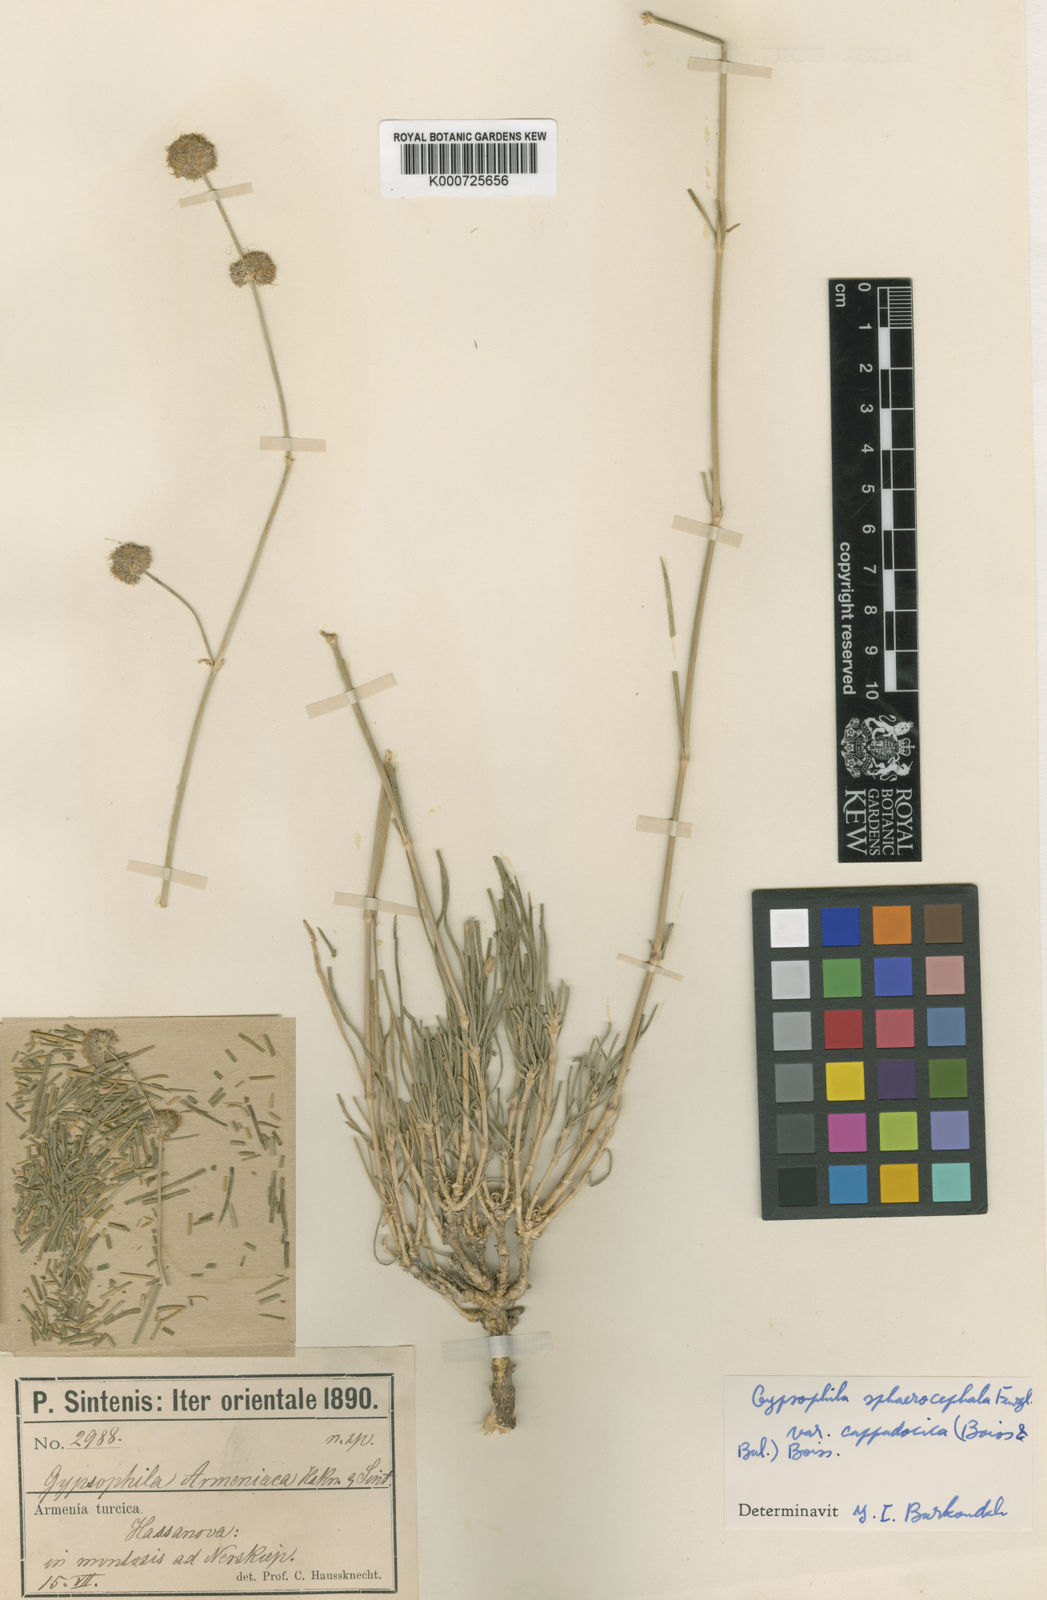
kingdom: Plantae
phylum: Tracheophyta
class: Magnoliopsida
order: Caryophyllales
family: Caryophyllaceae
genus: Gypsophila
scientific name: Gypsophila laricina
